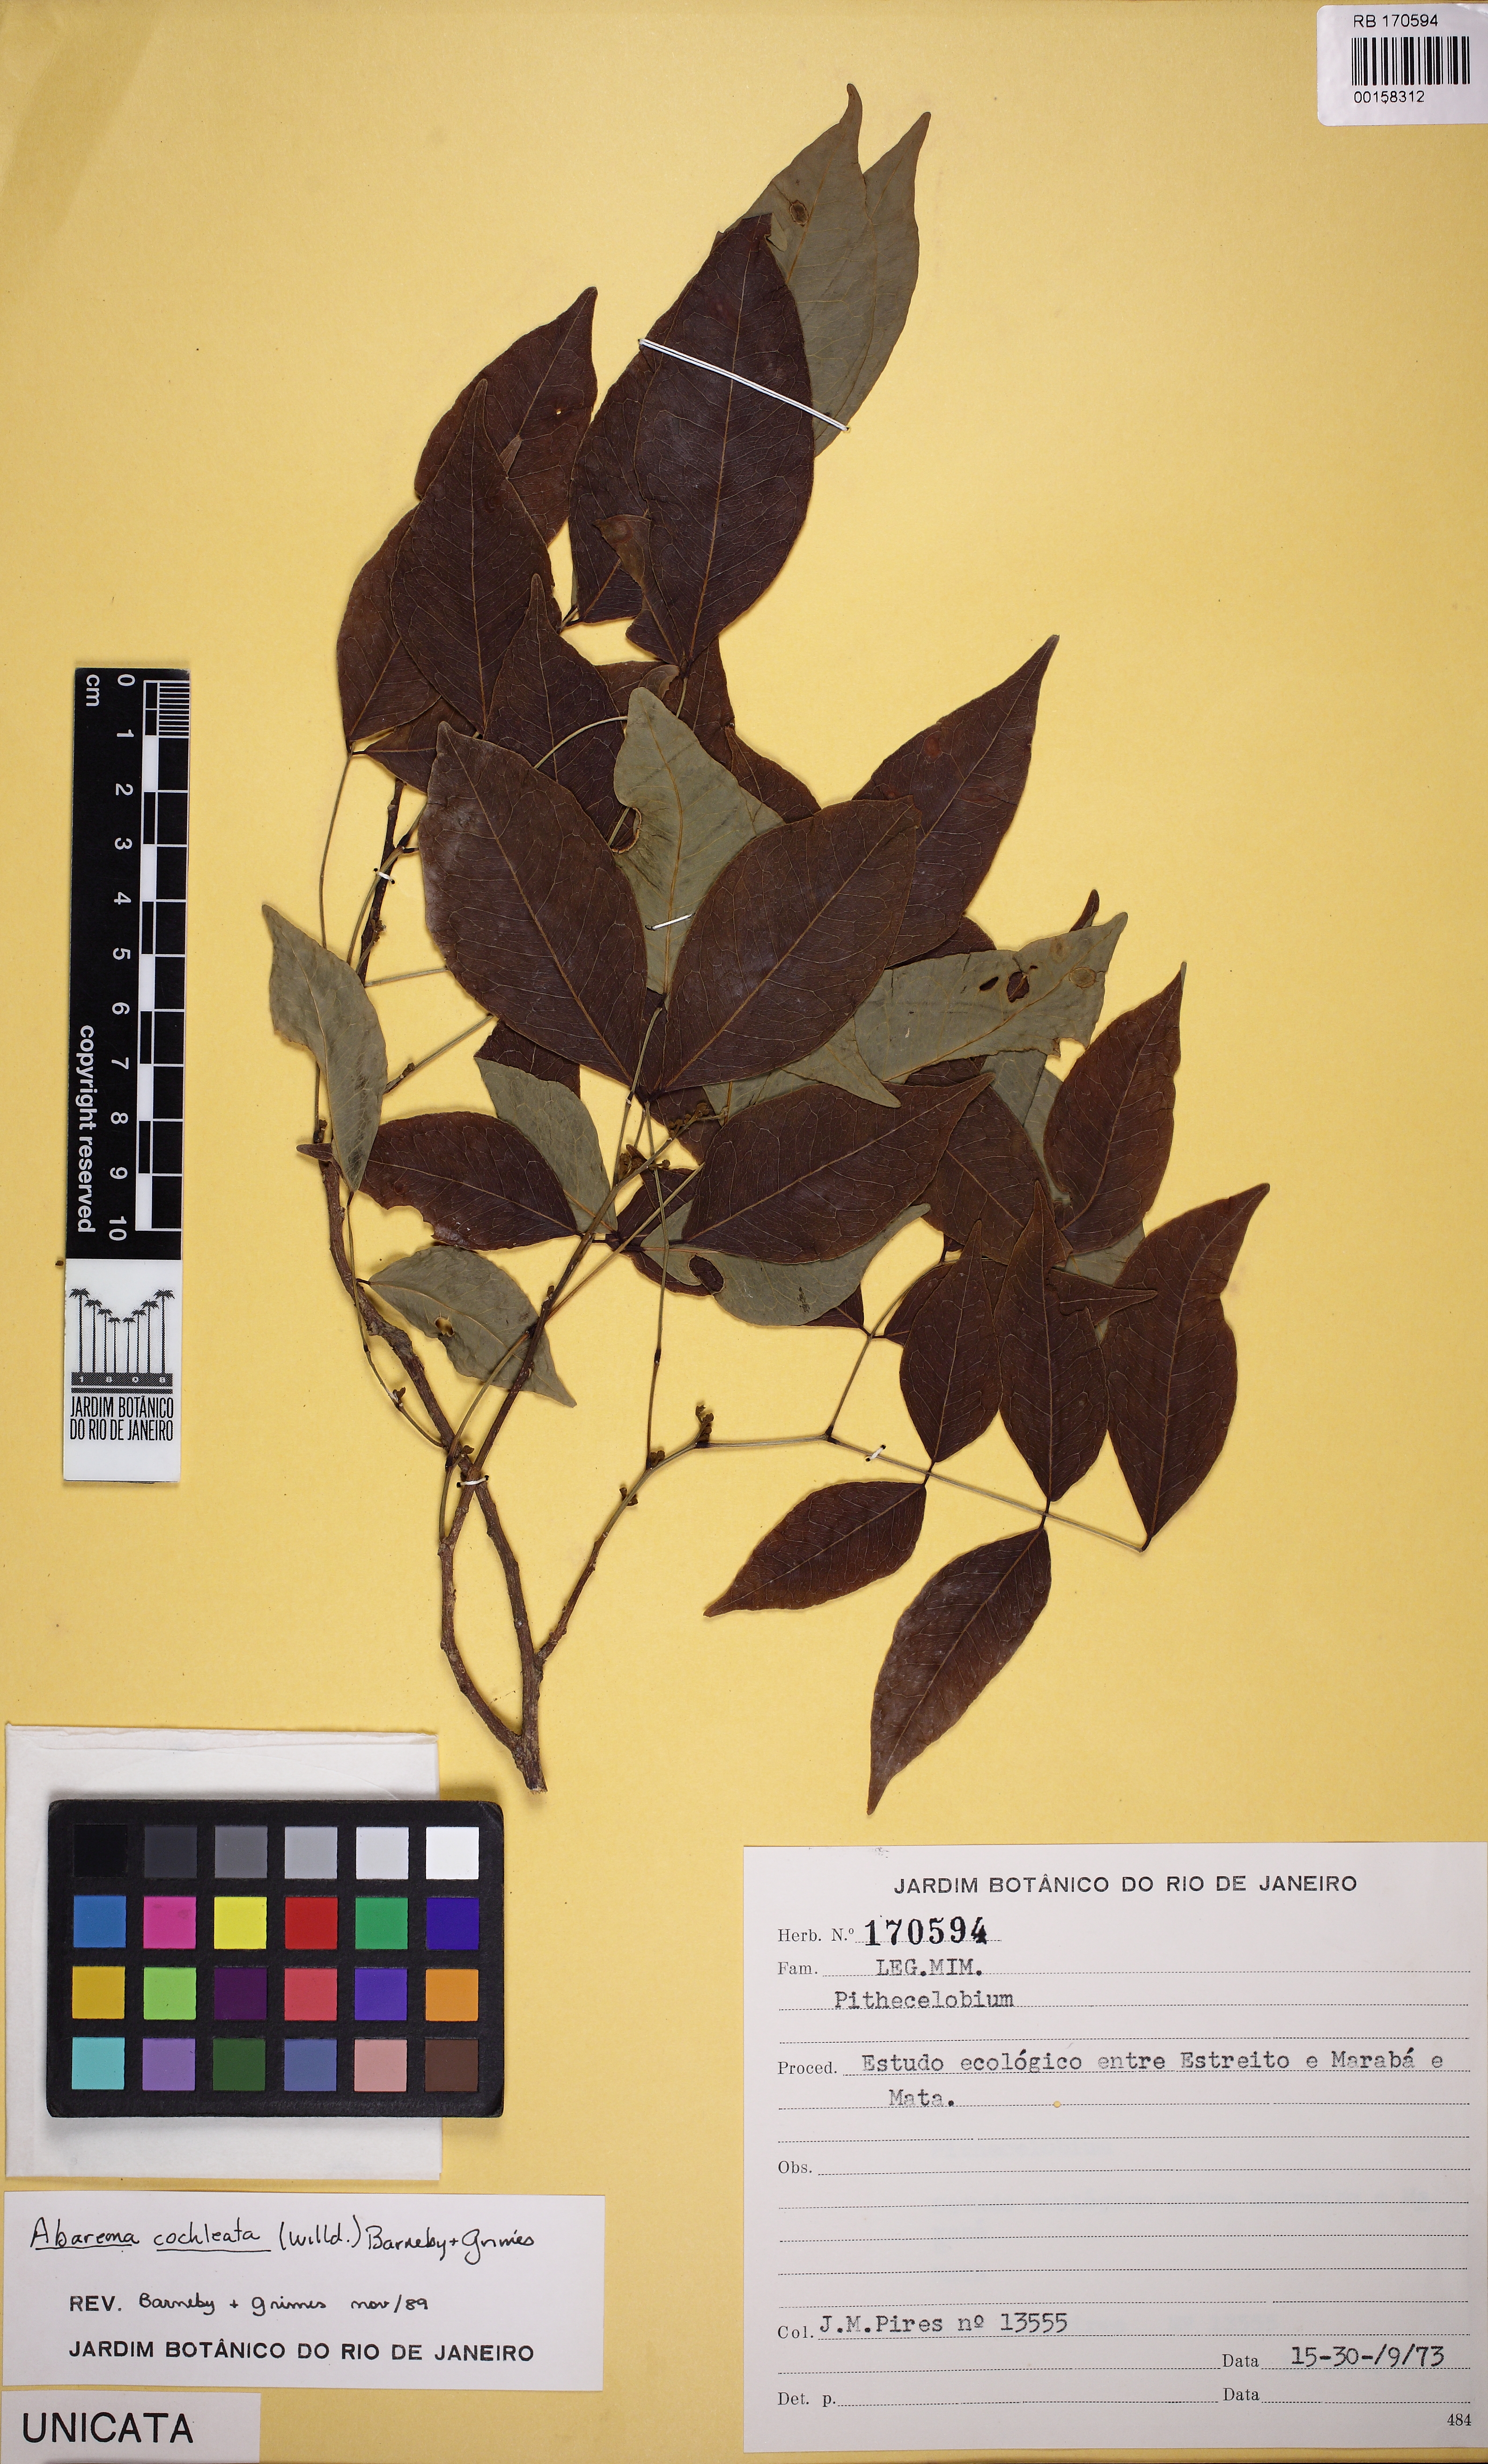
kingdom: Plantae
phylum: Tracheophyta
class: Magnoliopsida
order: Fabales
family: Fabaceae
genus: Jupunba
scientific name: Jupunba cochleata
